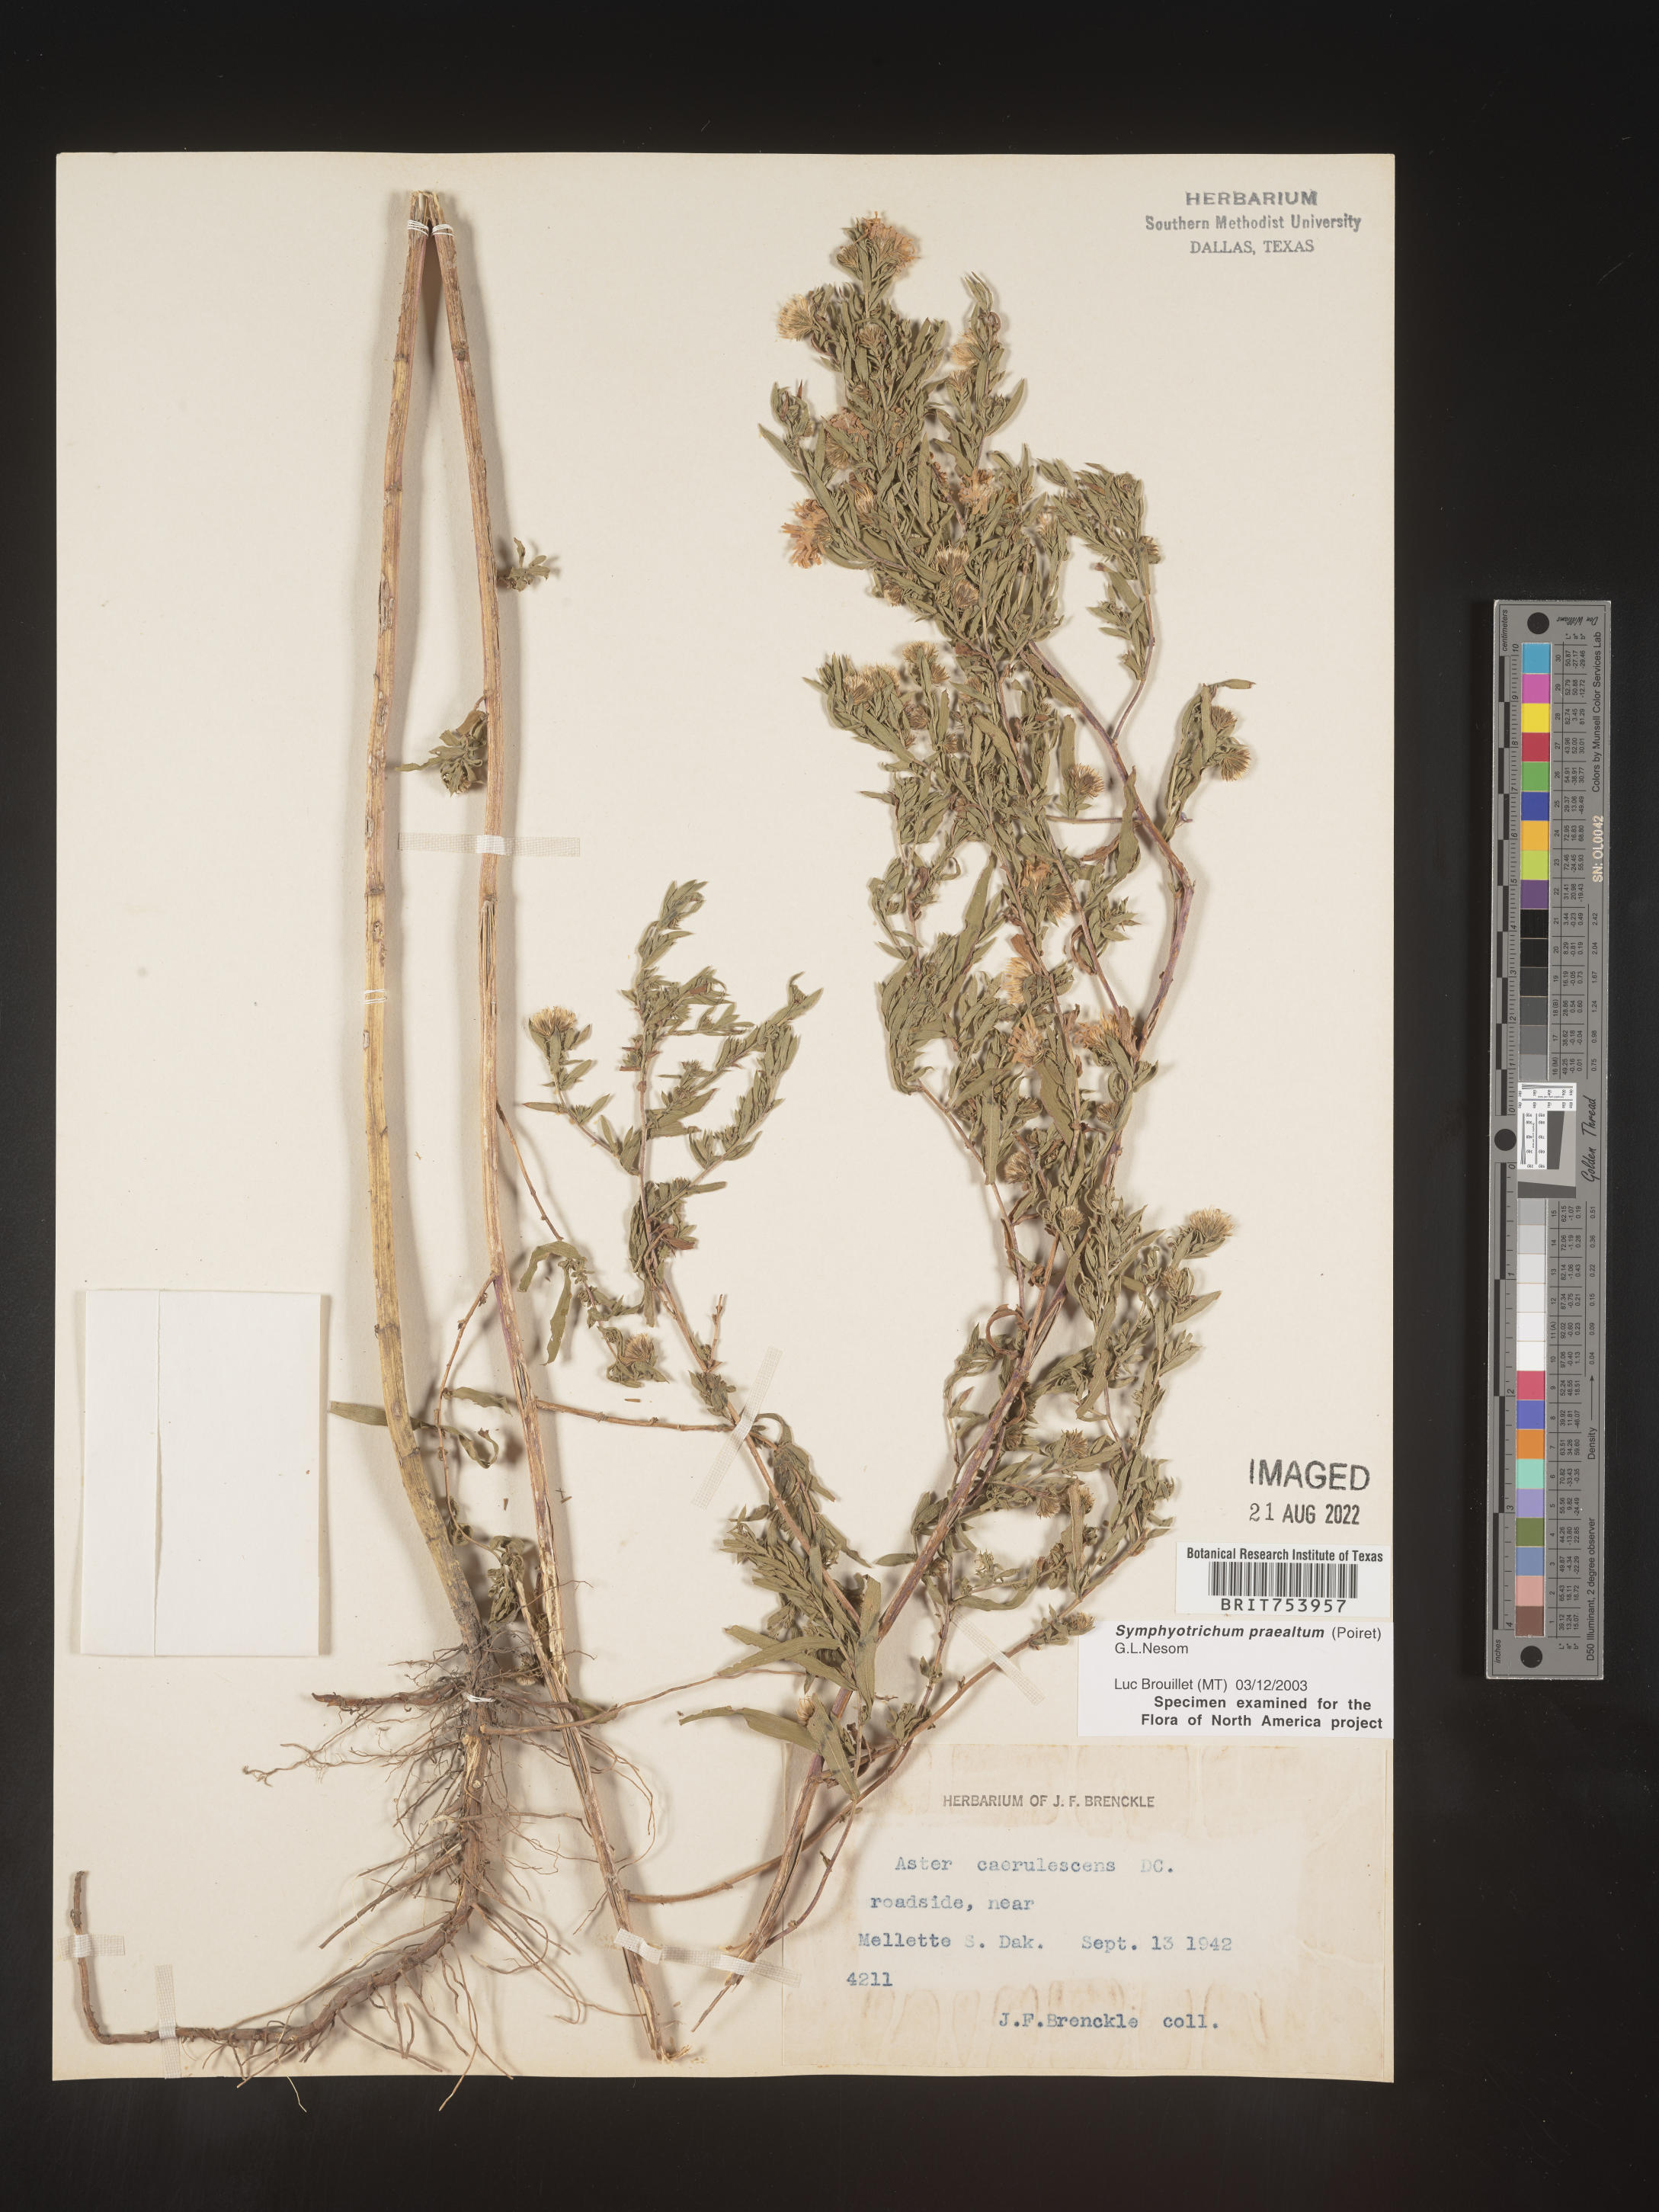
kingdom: Plantae
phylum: Tracheophyta
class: Magnoliopsida
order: Asterales
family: Asteraceae
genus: Symphyotrichum
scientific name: Symphyotrichum praealtum
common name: Willow aster
